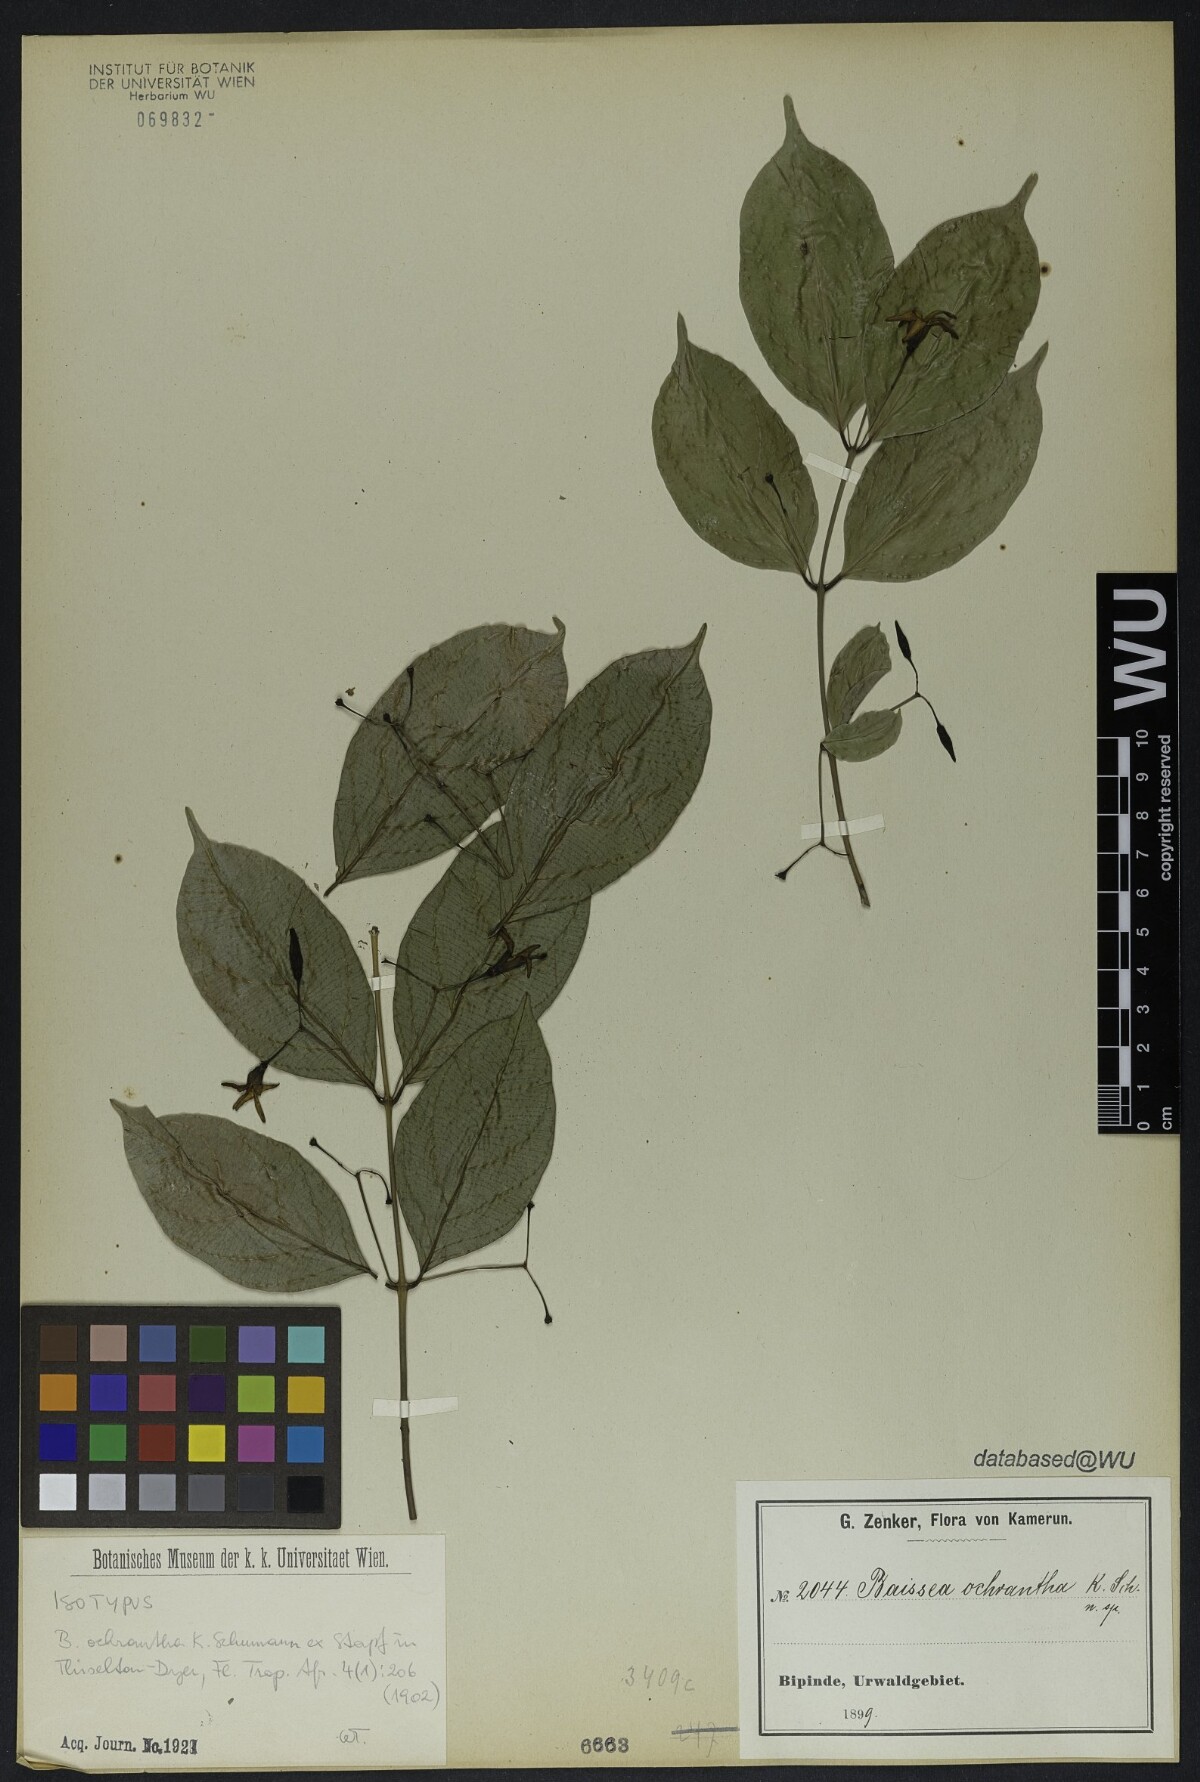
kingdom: Plantae
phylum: Tracheophyta
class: Magnoliopsida
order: Gentianales
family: Apocynaceae
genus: Baissea
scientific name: Baissea ochrantha
